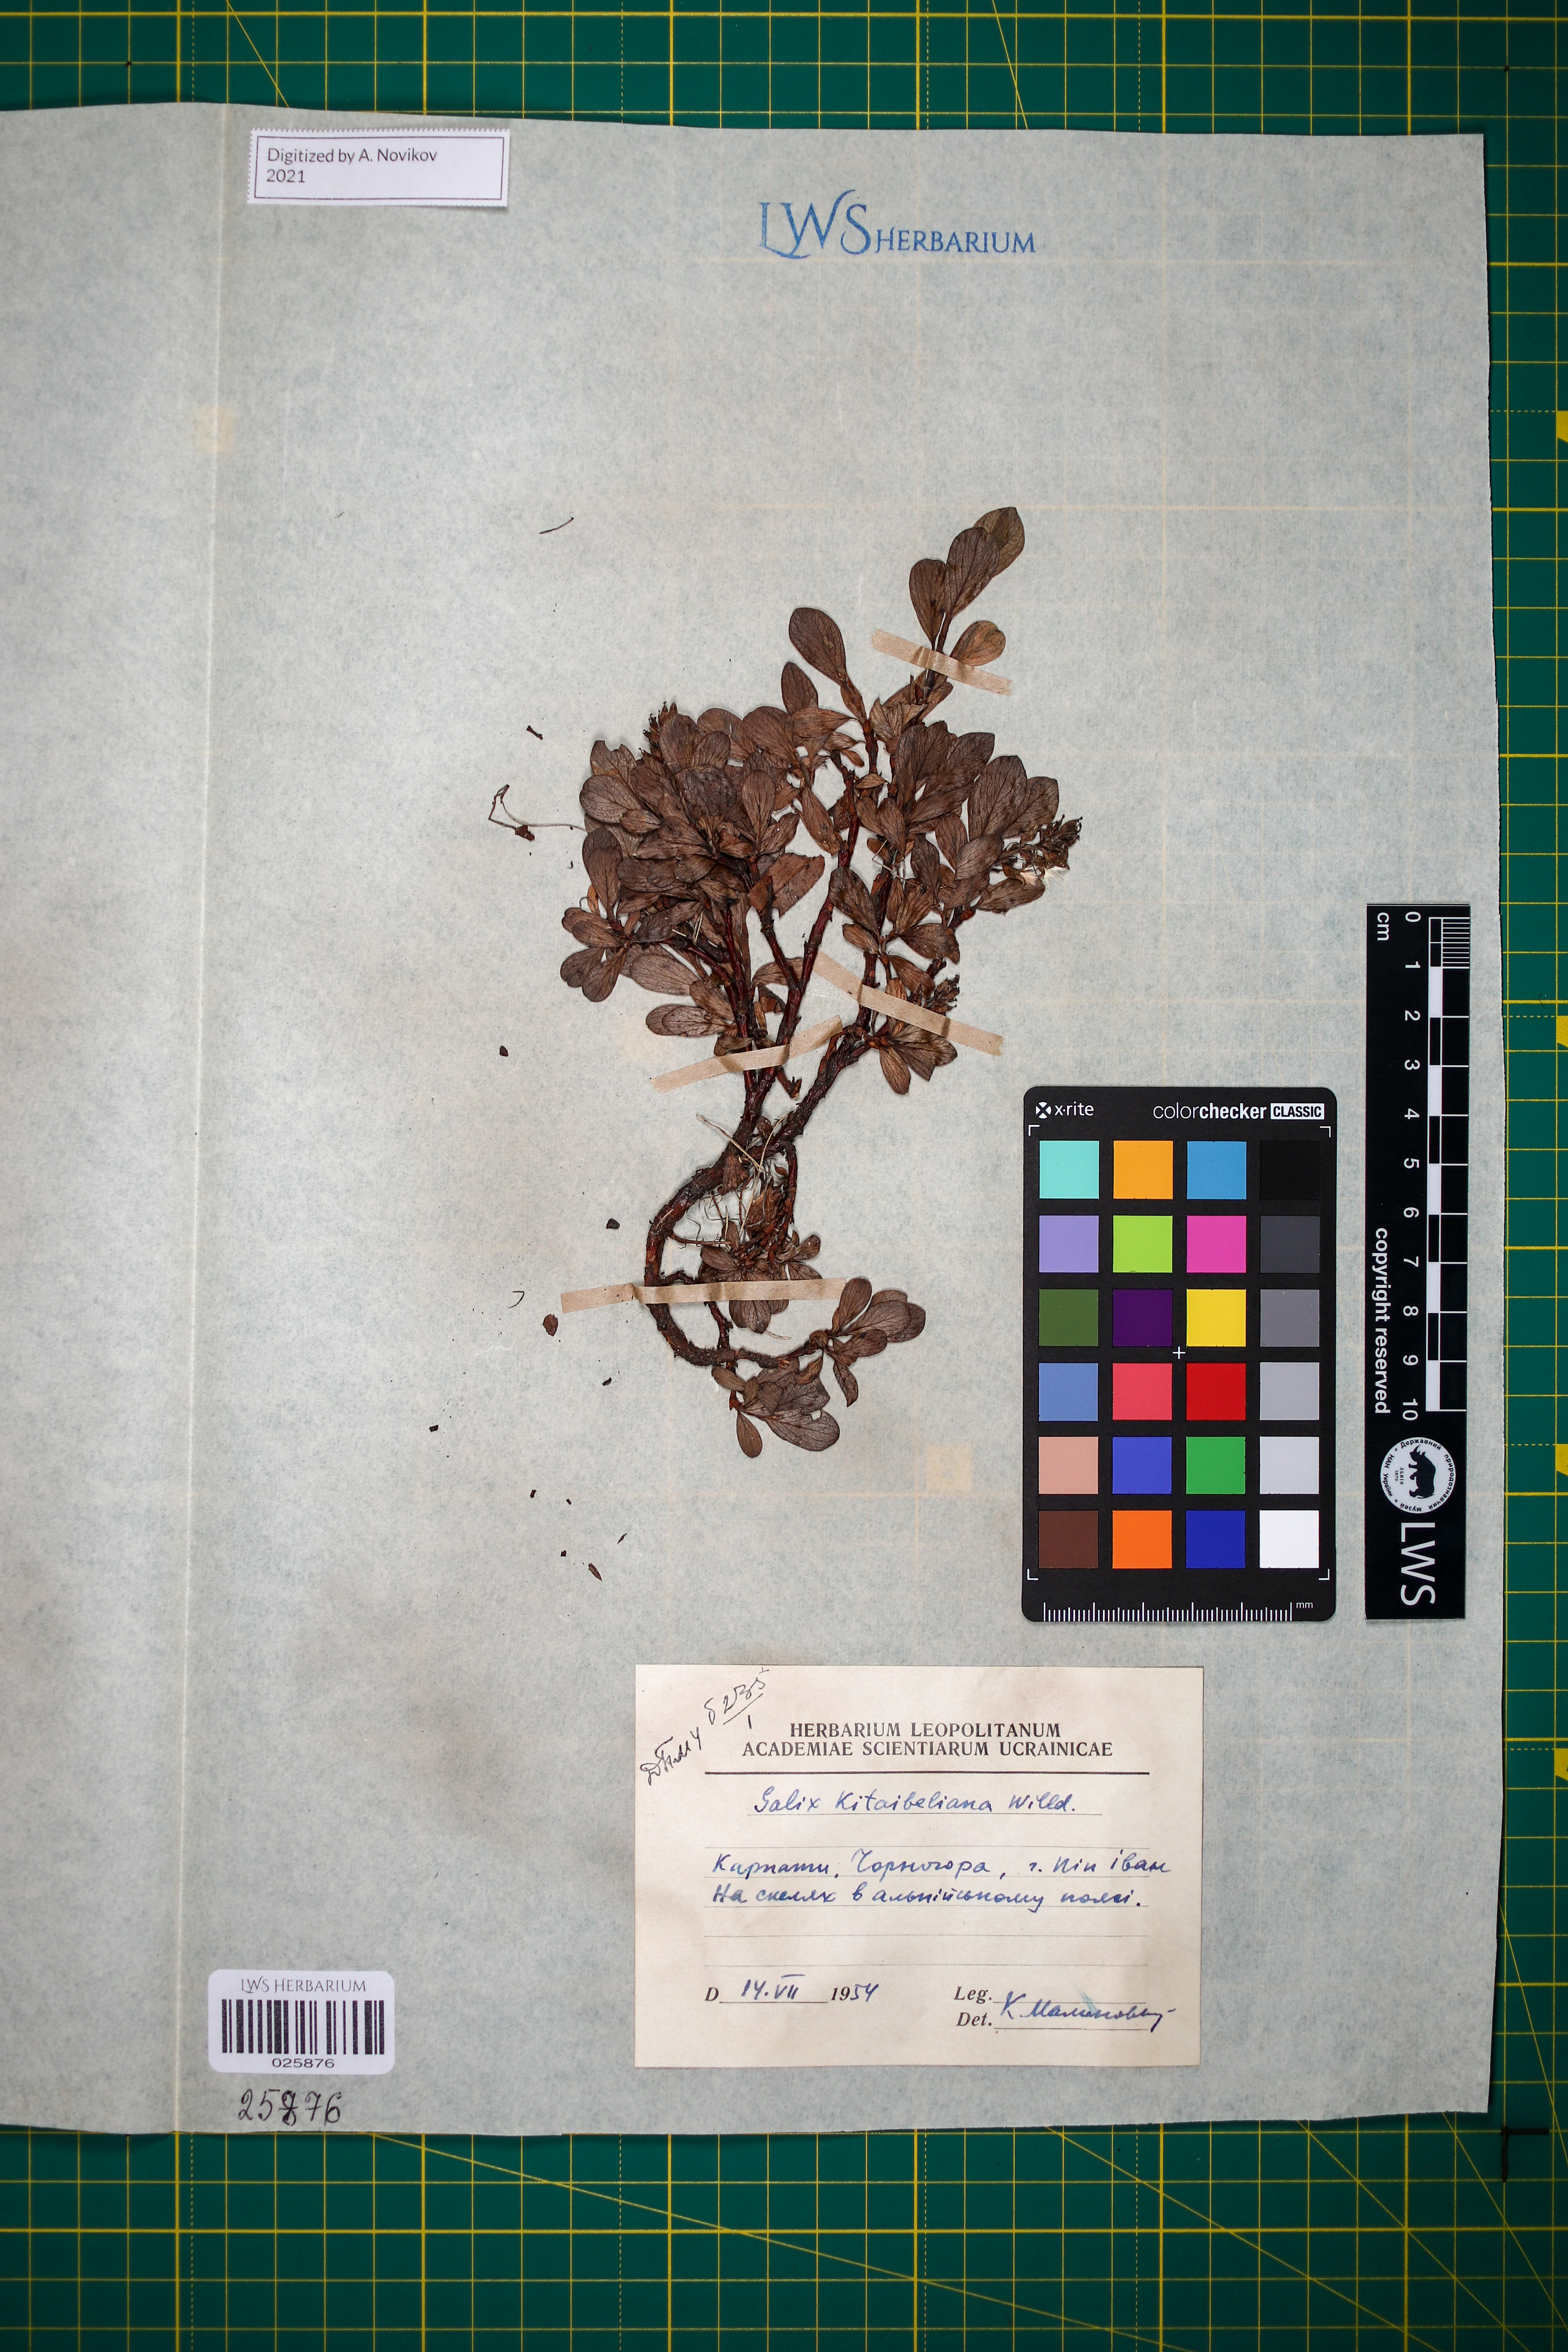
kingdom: Plantae
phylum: Tracheophyta
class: Magnoliopsida
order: Malpighiales
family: Salicaceae
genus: Salix
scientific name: Salix retusa
